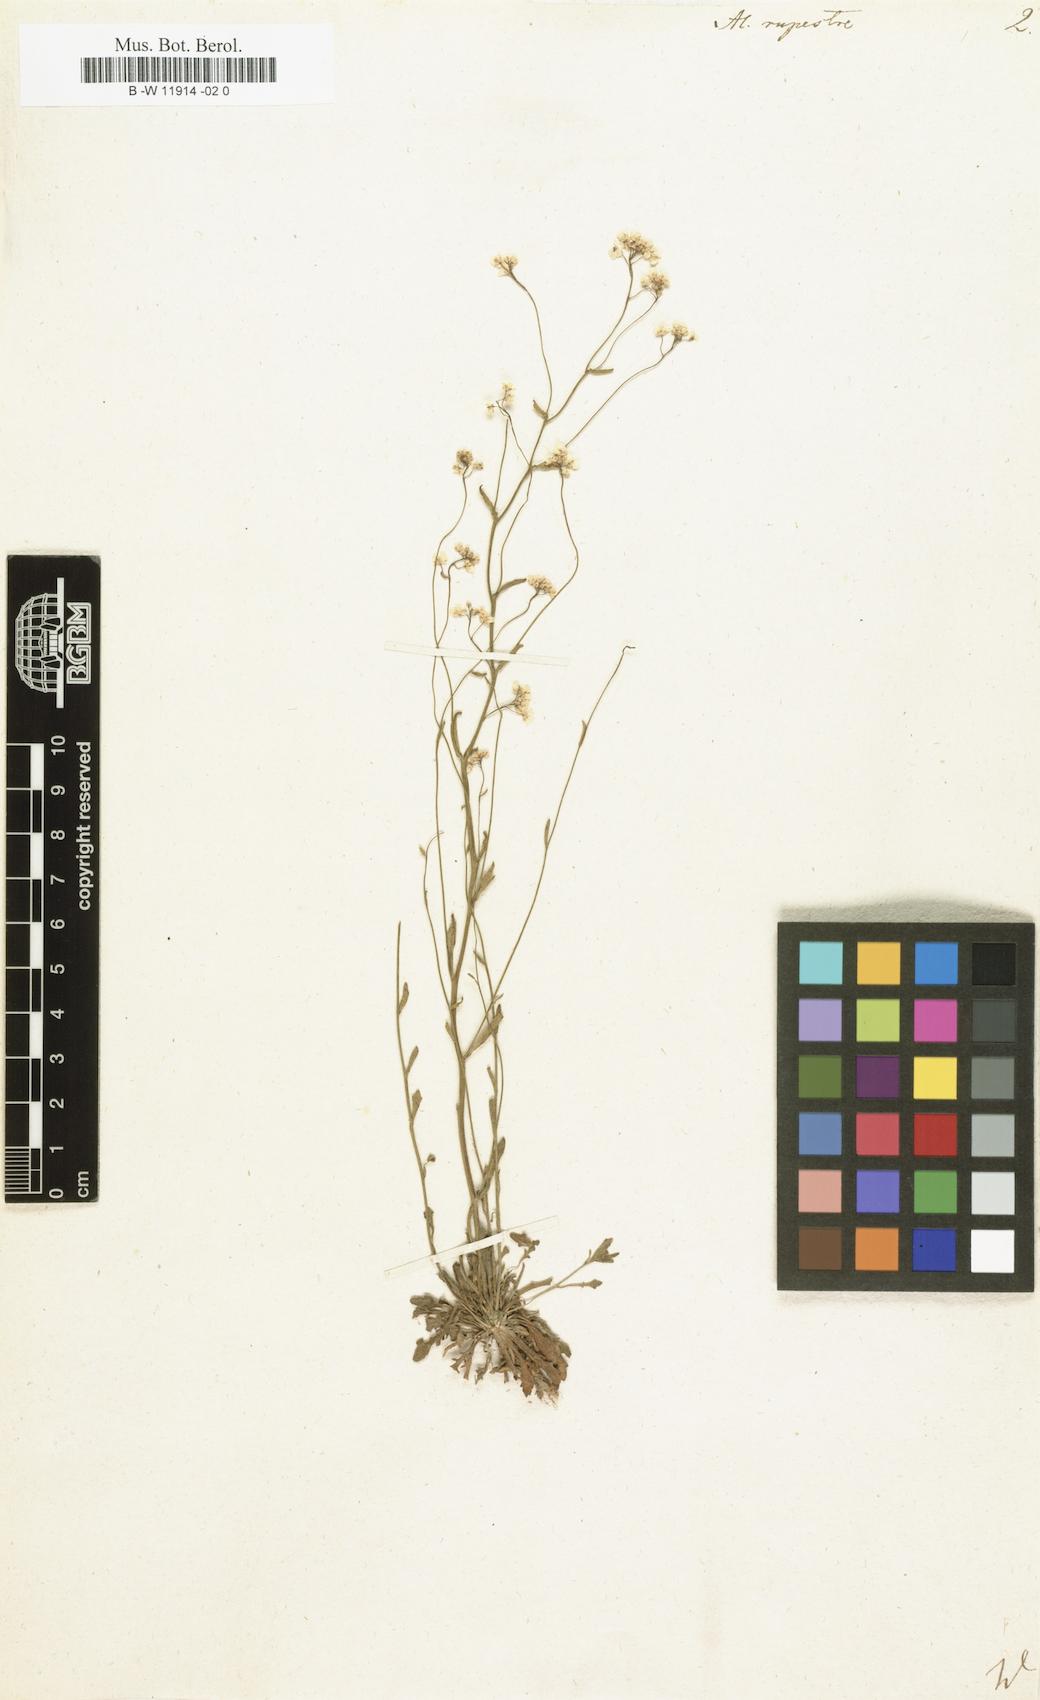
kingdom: Plantae
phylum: Tracheophyta
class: Magnoliopsida
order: Brassicales
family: Brassicaceae
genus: Phyllolepidium
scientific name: Phyllolepidium rupestre
